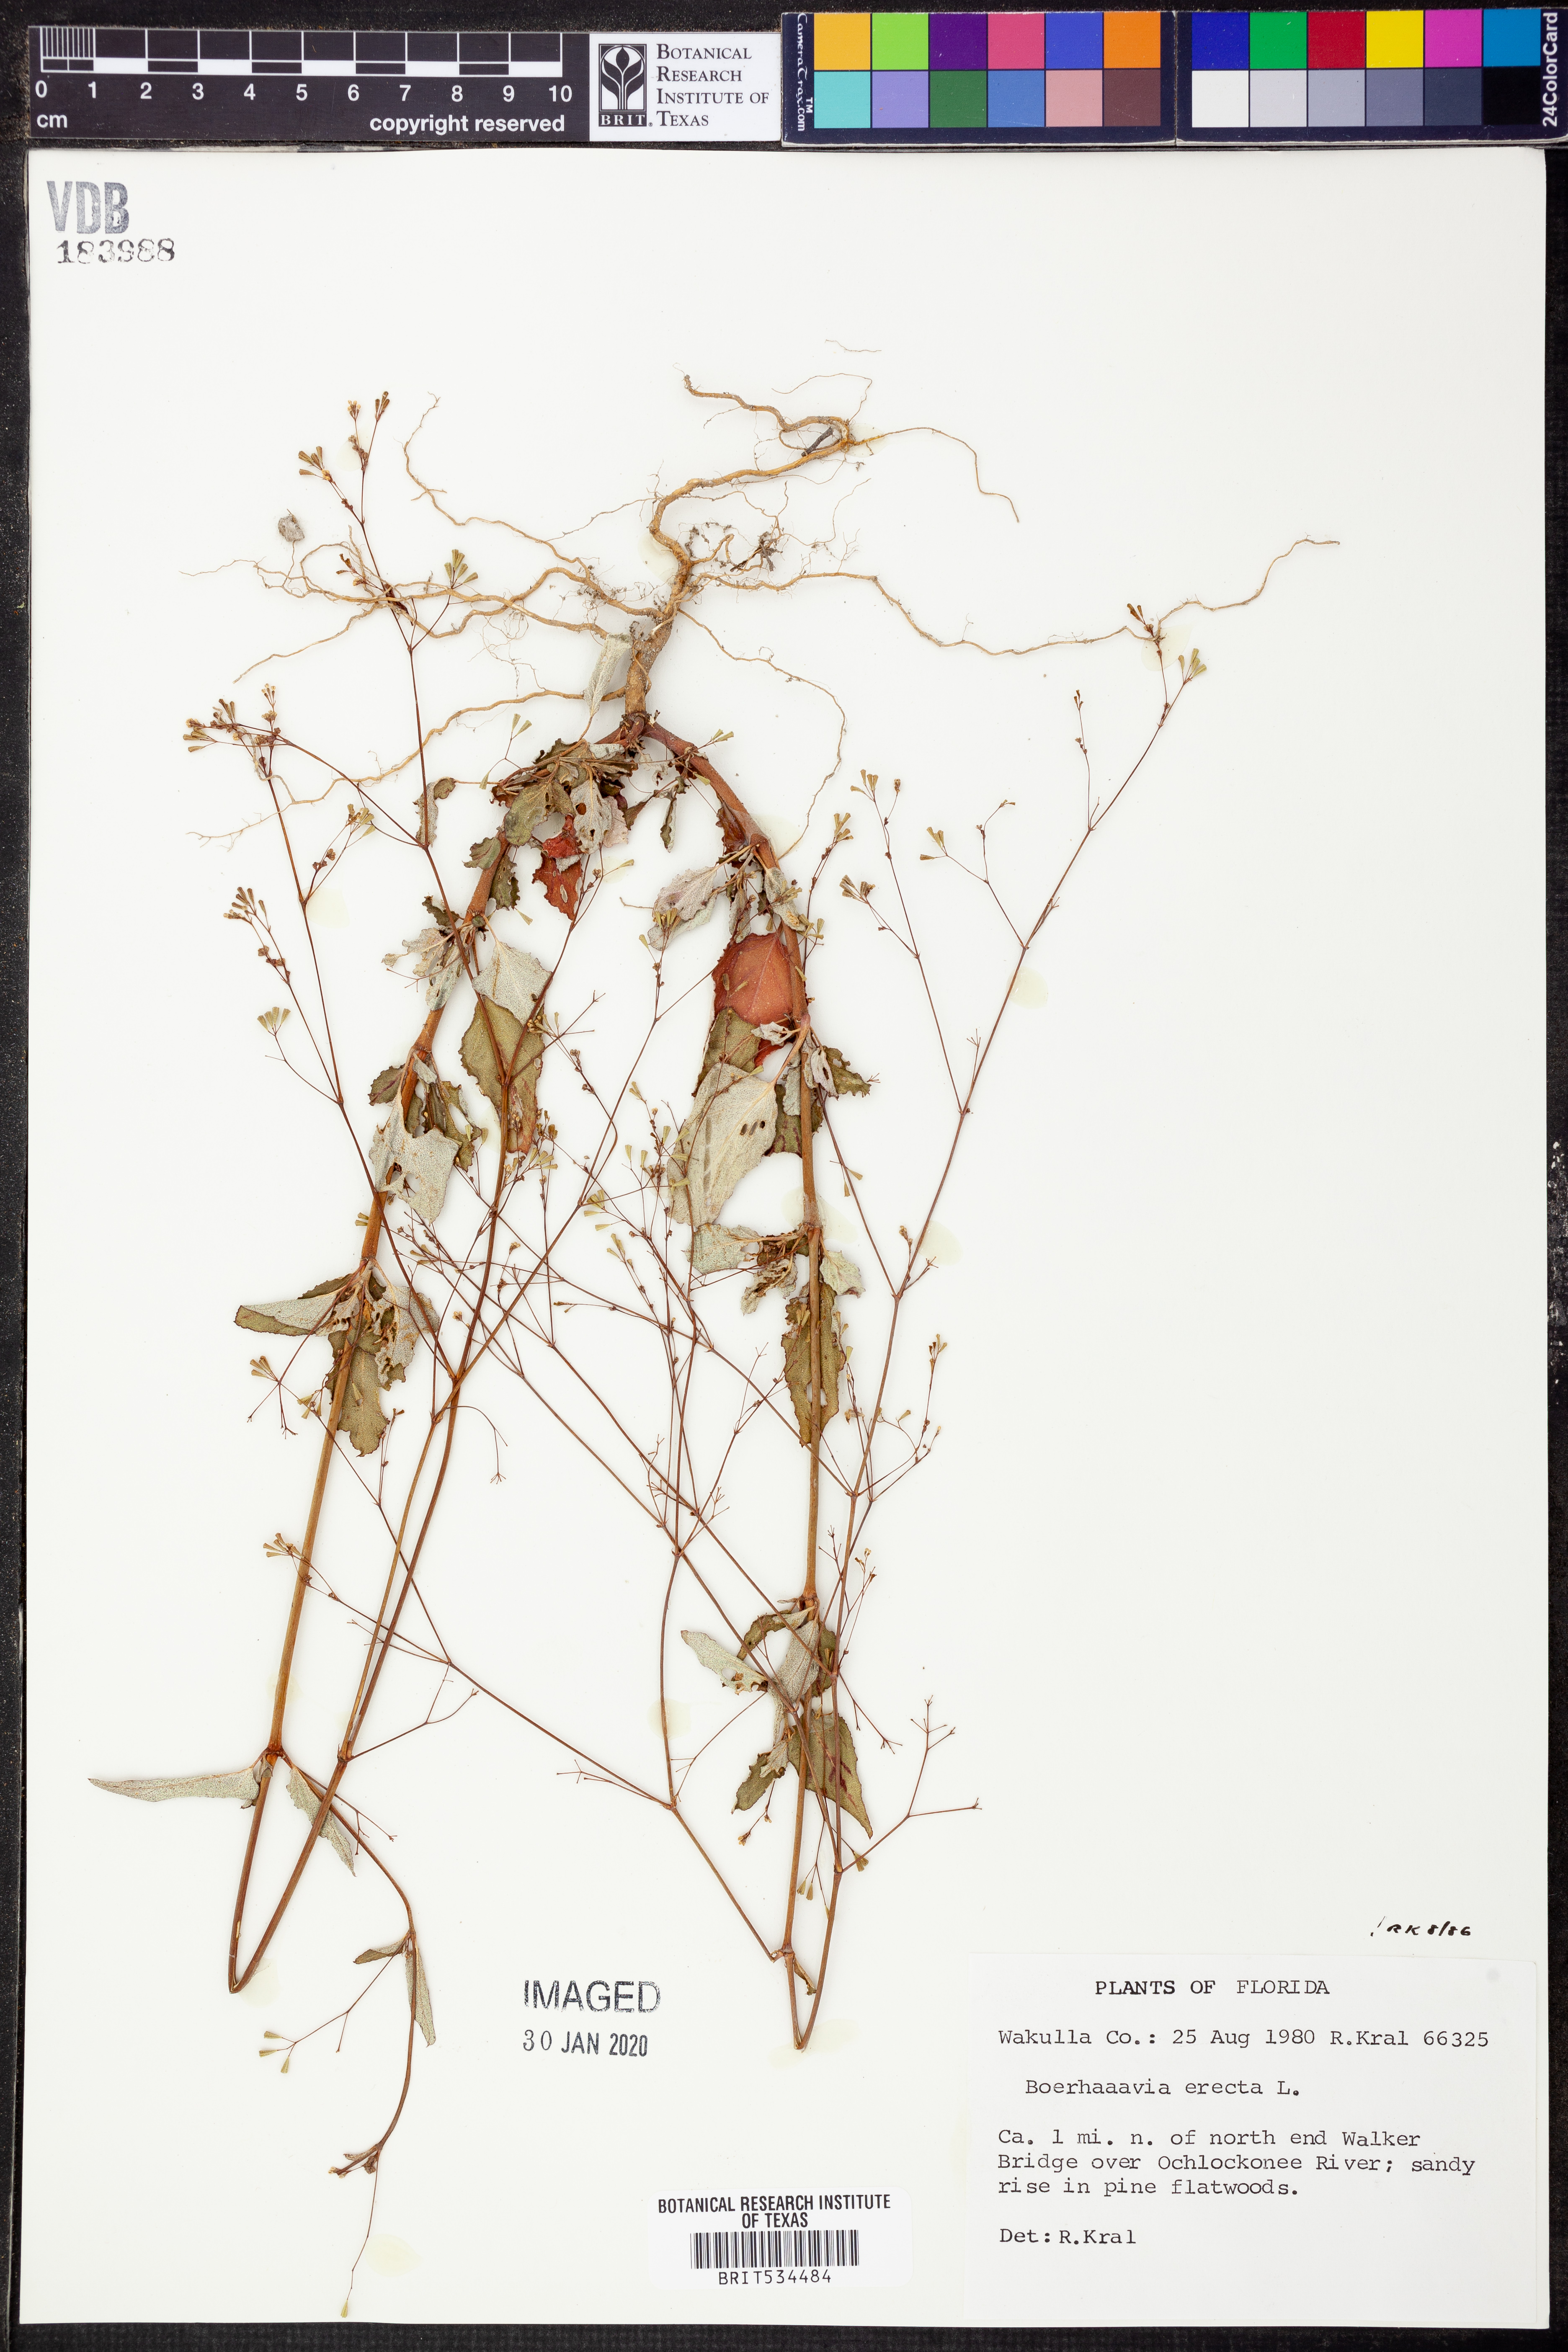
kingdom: Plantae
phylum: Tracheophyta
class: Magnoliopsida
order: Caryophyllales
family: Nyctaginaceae
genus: Boerhavia
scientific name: Boerhavia erecta
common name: Erect spiderling
